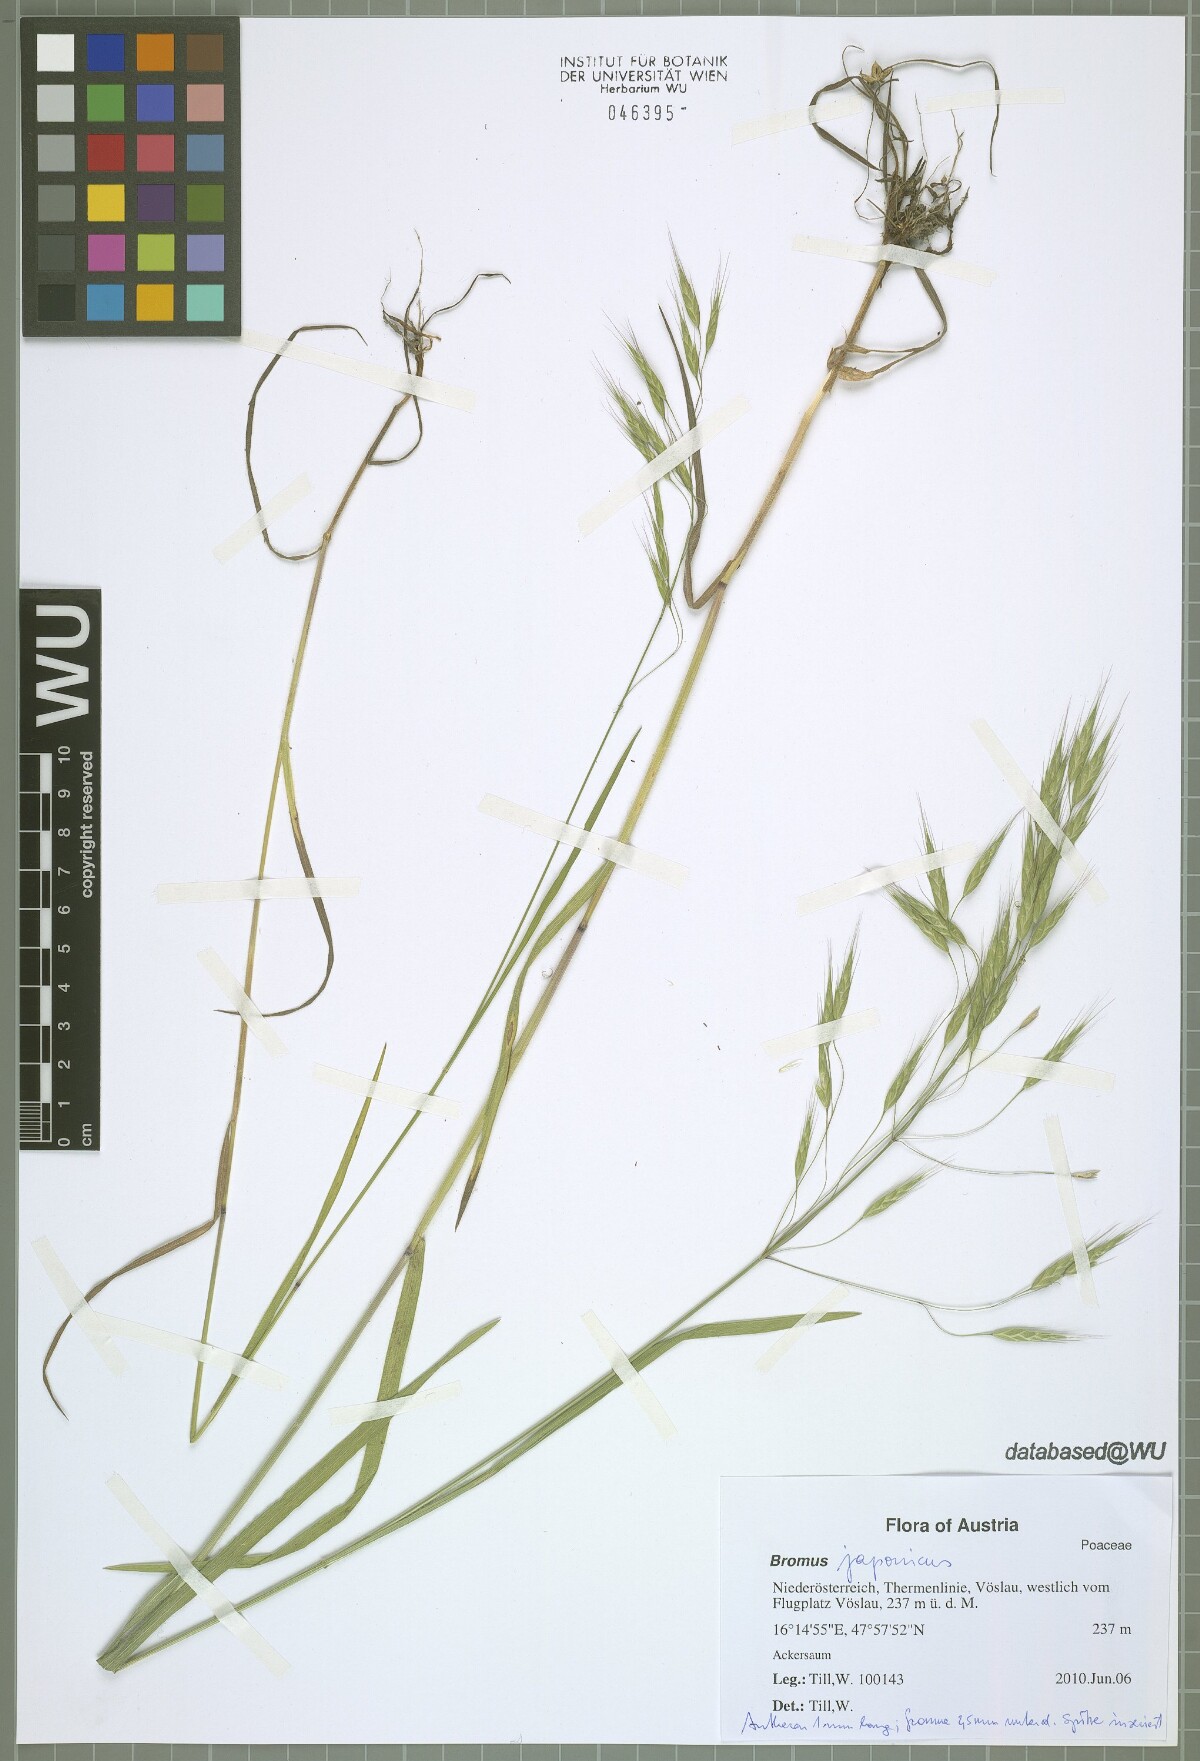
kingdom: Plantae
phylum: Tracheophyta
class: Liliopsida
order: Poales
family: Poaceae
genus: Bromus
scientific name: Bromus japonicus
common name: Japanese brome
